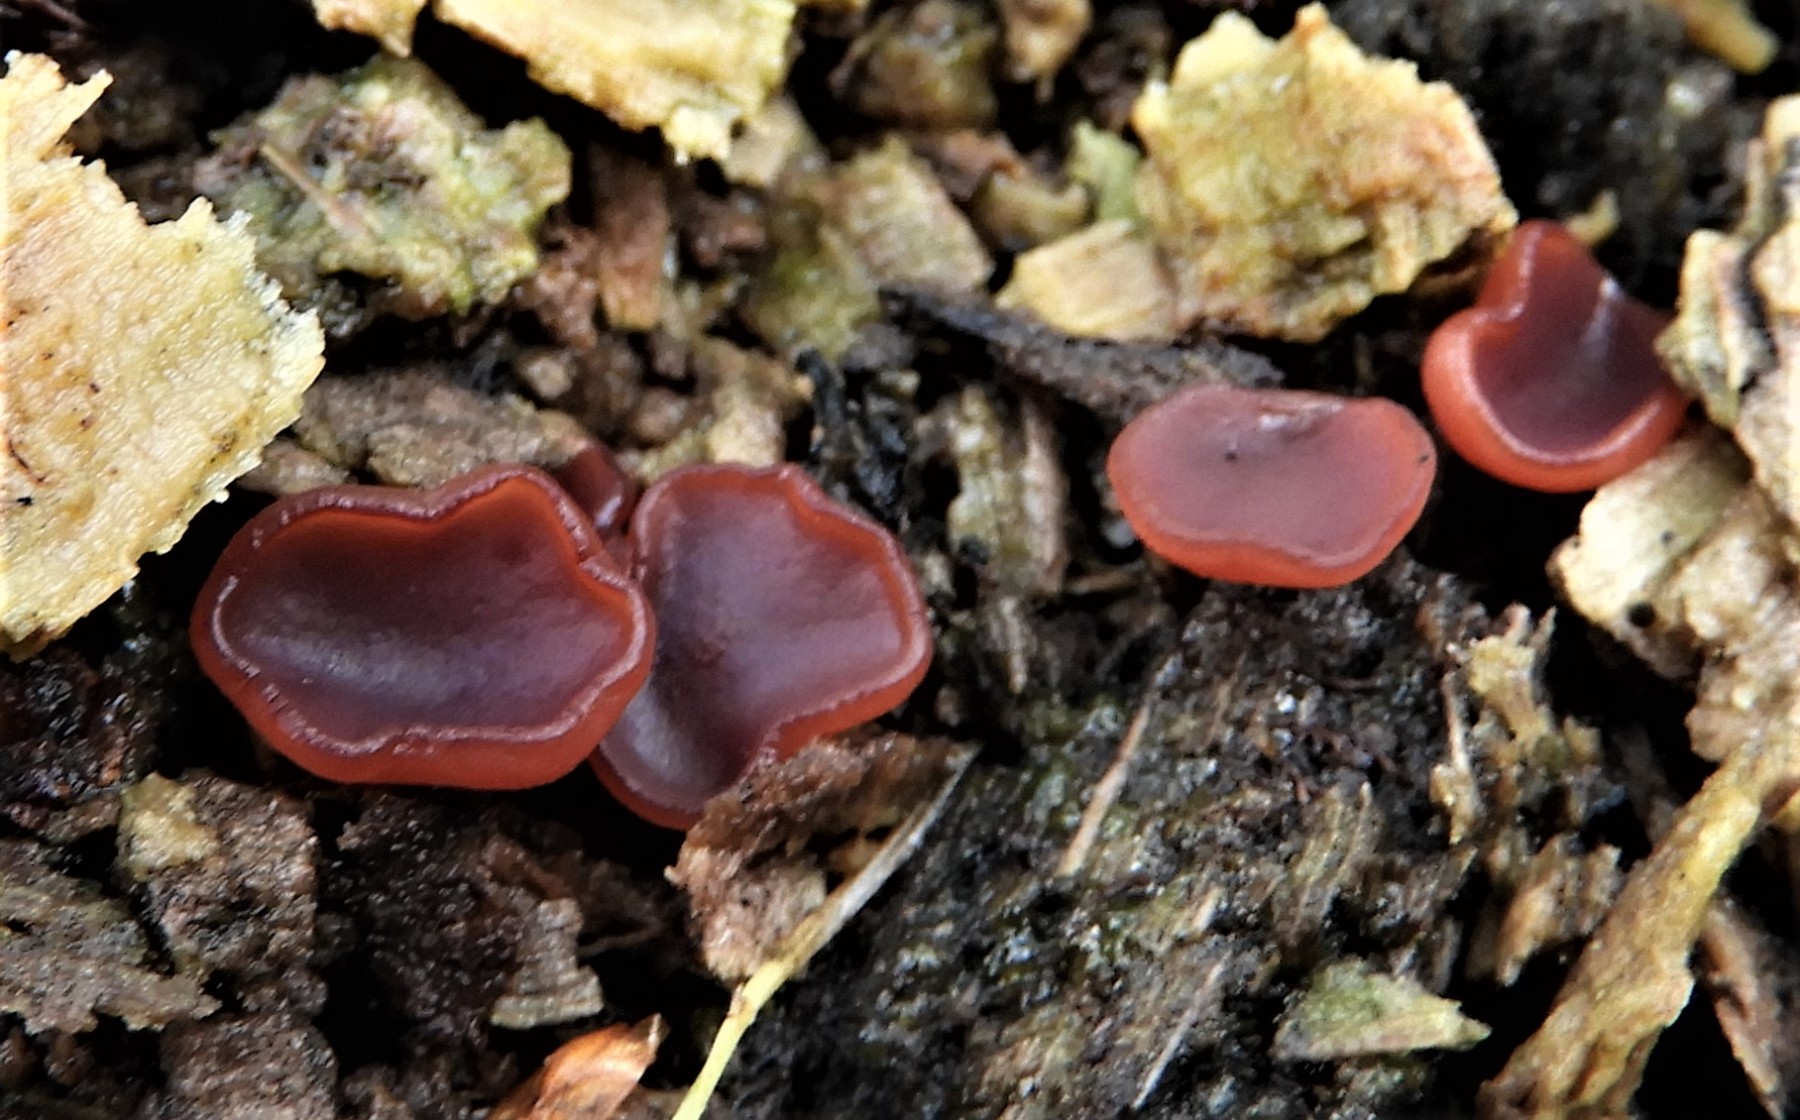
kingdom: Fungi
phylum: Ascomycota
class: Leotiomycetes
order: Helotiales
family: Gelatinodiscaceae
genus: Ascocoryne
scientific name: Ascocoryne cylichnium
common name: stor sejskive
